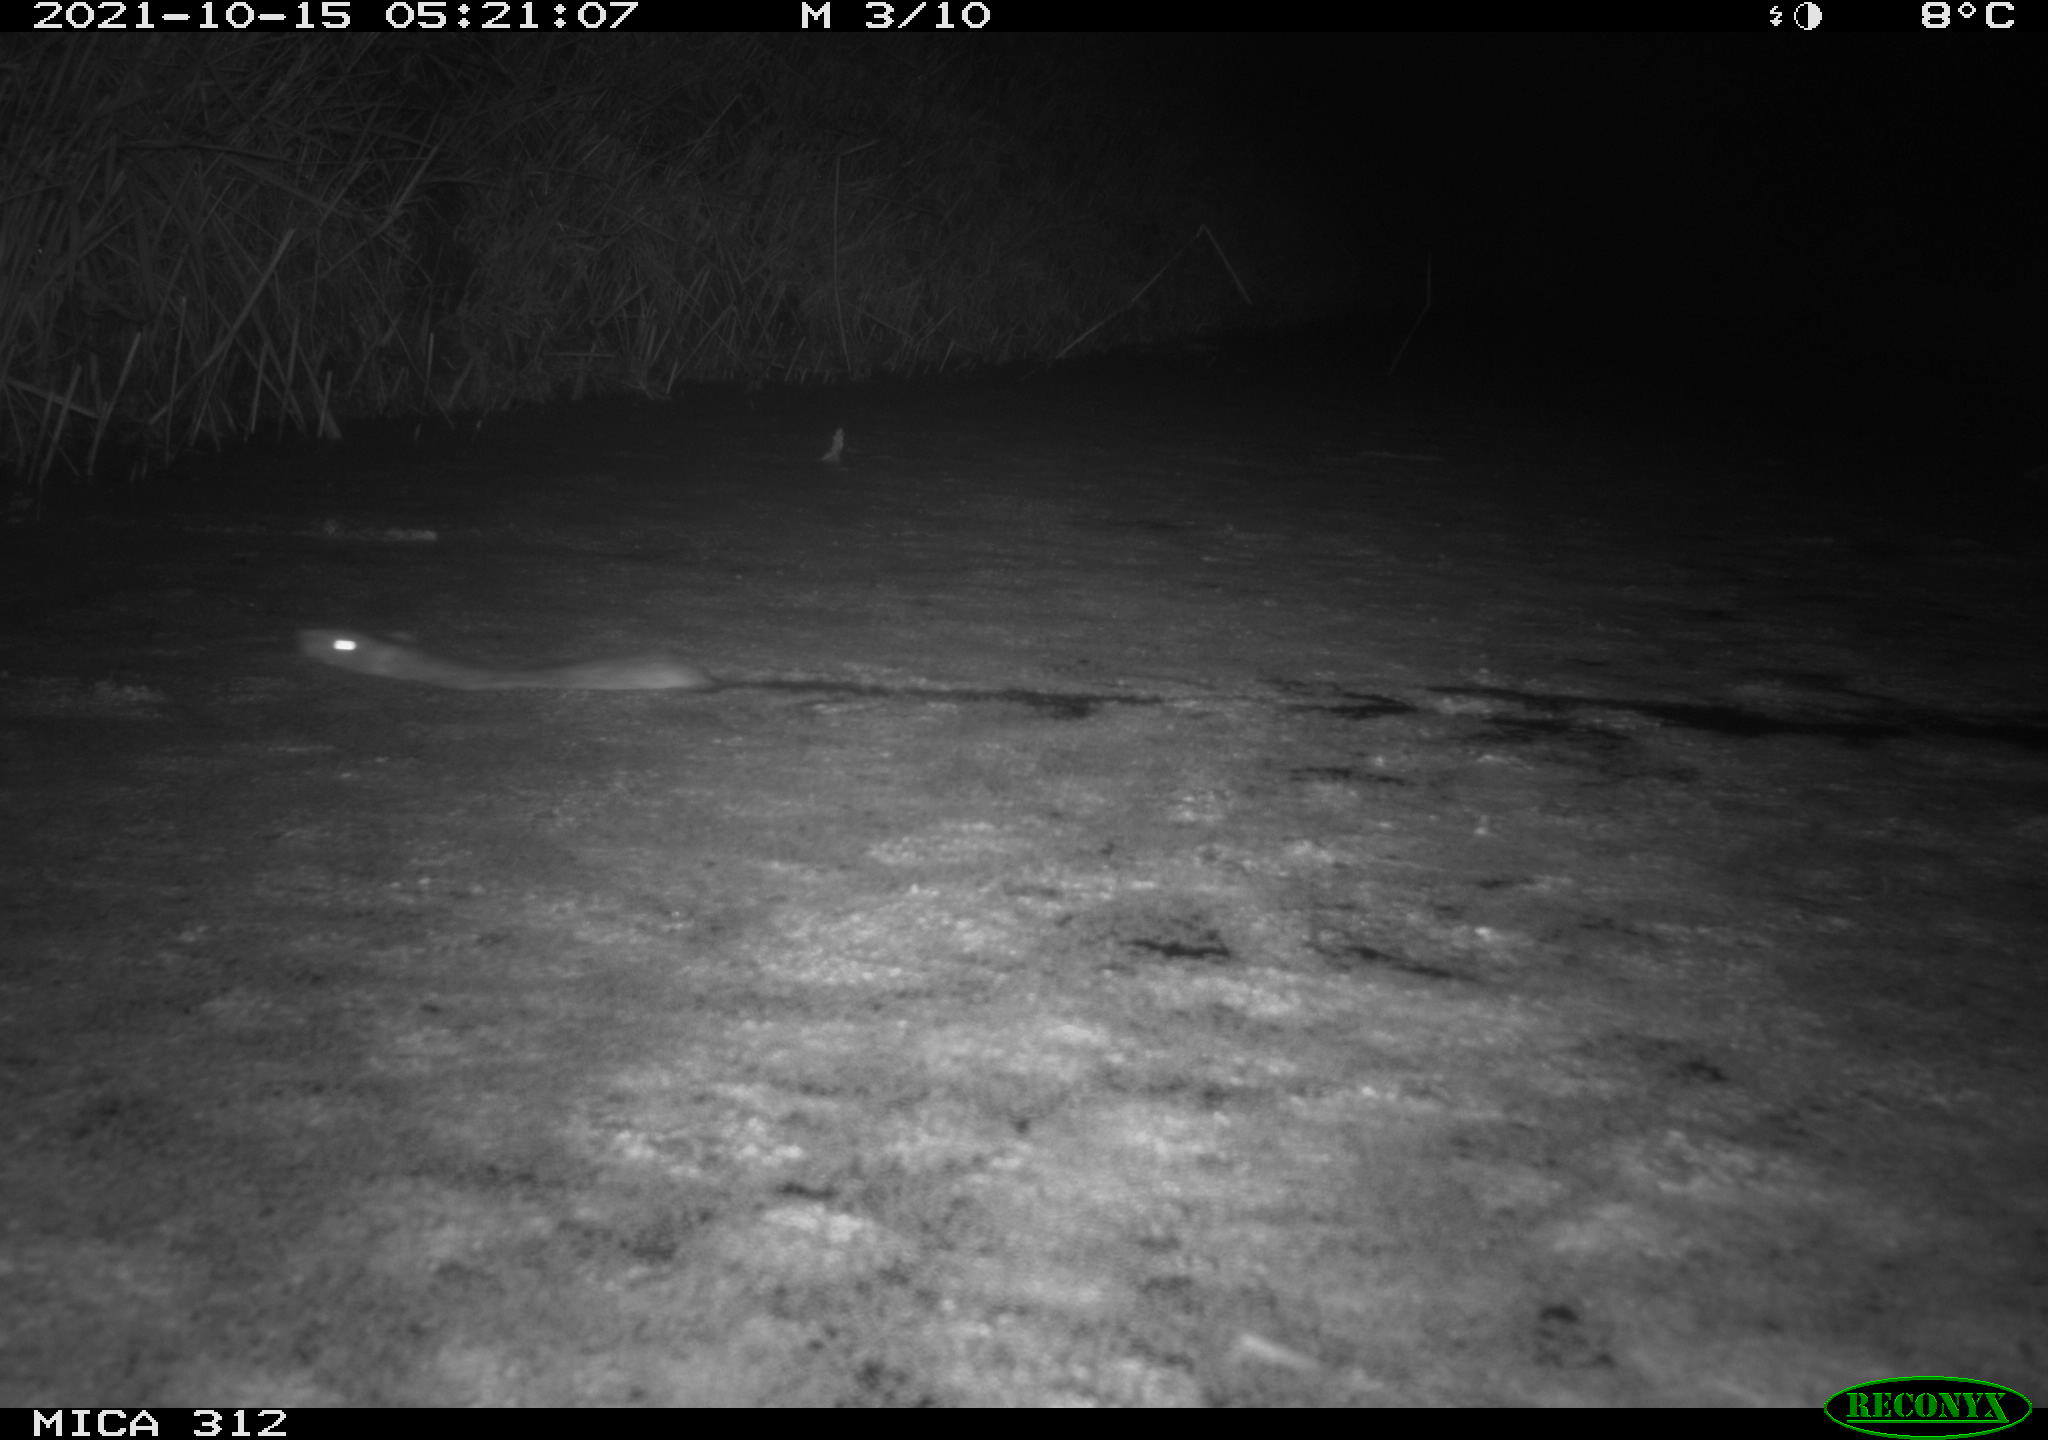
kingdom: Animalia
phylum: Chordata
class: Mammalia
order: Rodentia
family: Muridae
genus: Rattus
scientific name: Rattus norvegicus
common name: Brown rat
